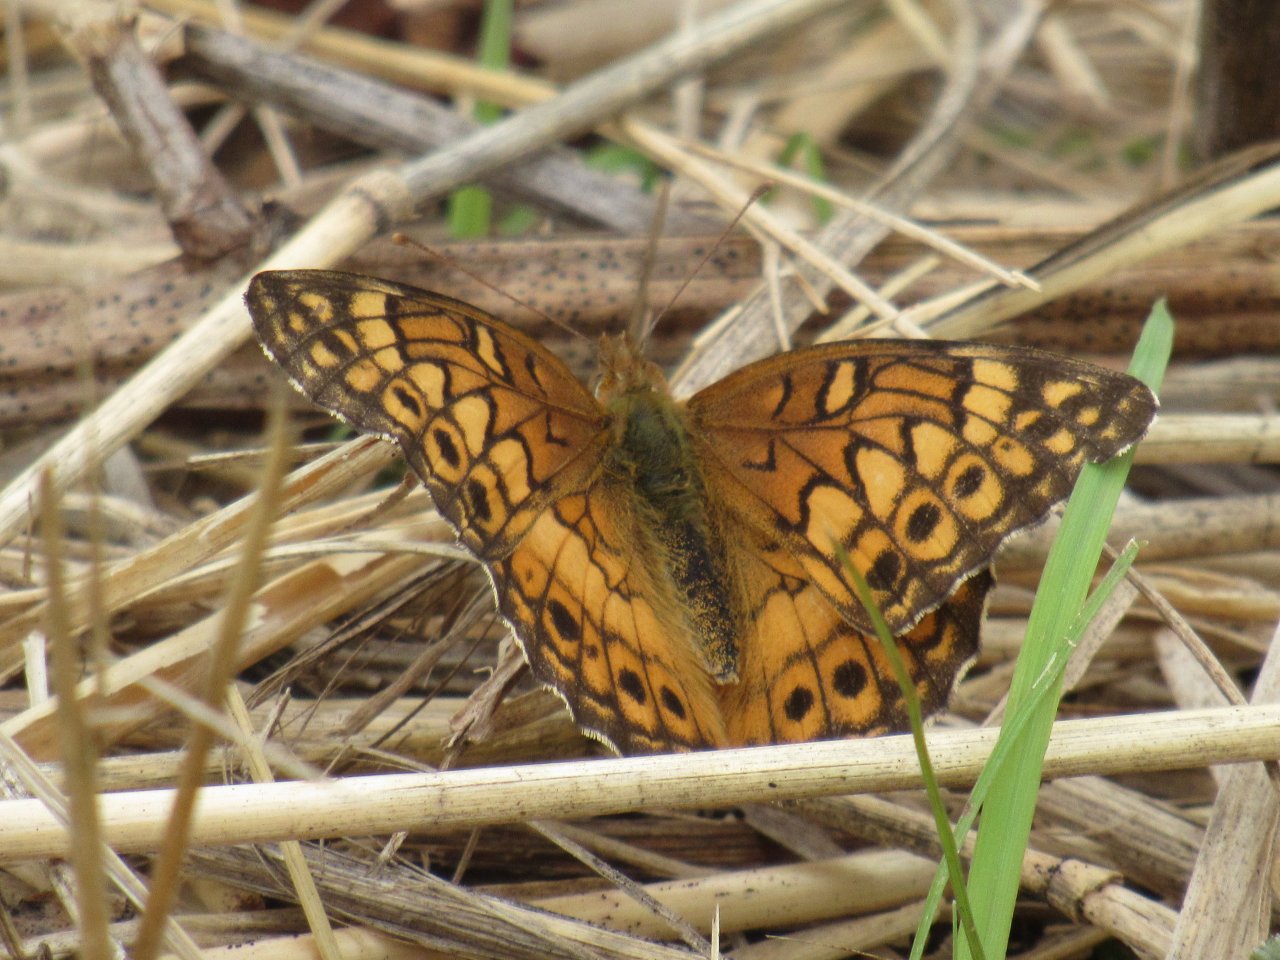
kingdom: Animalia
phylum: Arthropoda
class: Insecta
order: Lepidoptera
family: Nymphalidae
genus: Euptoieta
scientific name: Euptoieta claudia
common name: Variegated Fritillary
